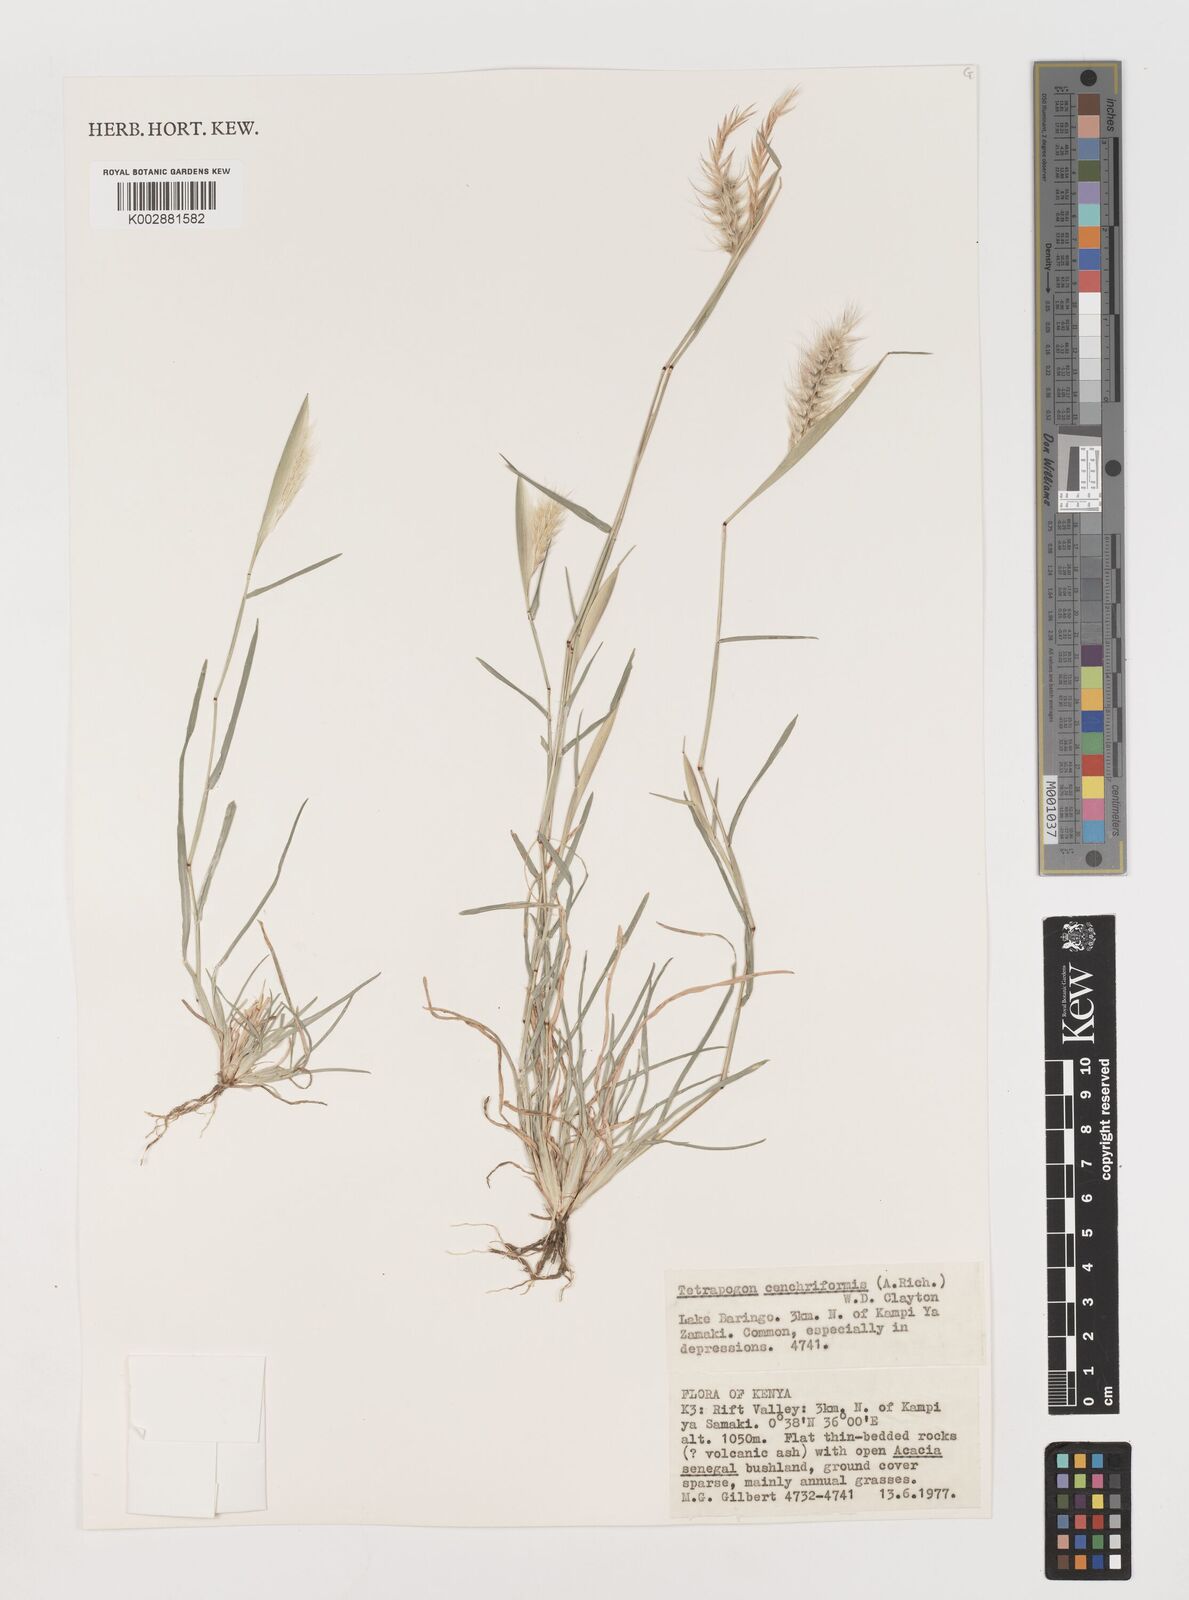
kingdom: Plantae
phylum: Tracheophyta
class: Liliopsida
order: Poales
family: Poaceae
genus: Tetrapogon
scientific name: Tetrapogon cenchriformis
